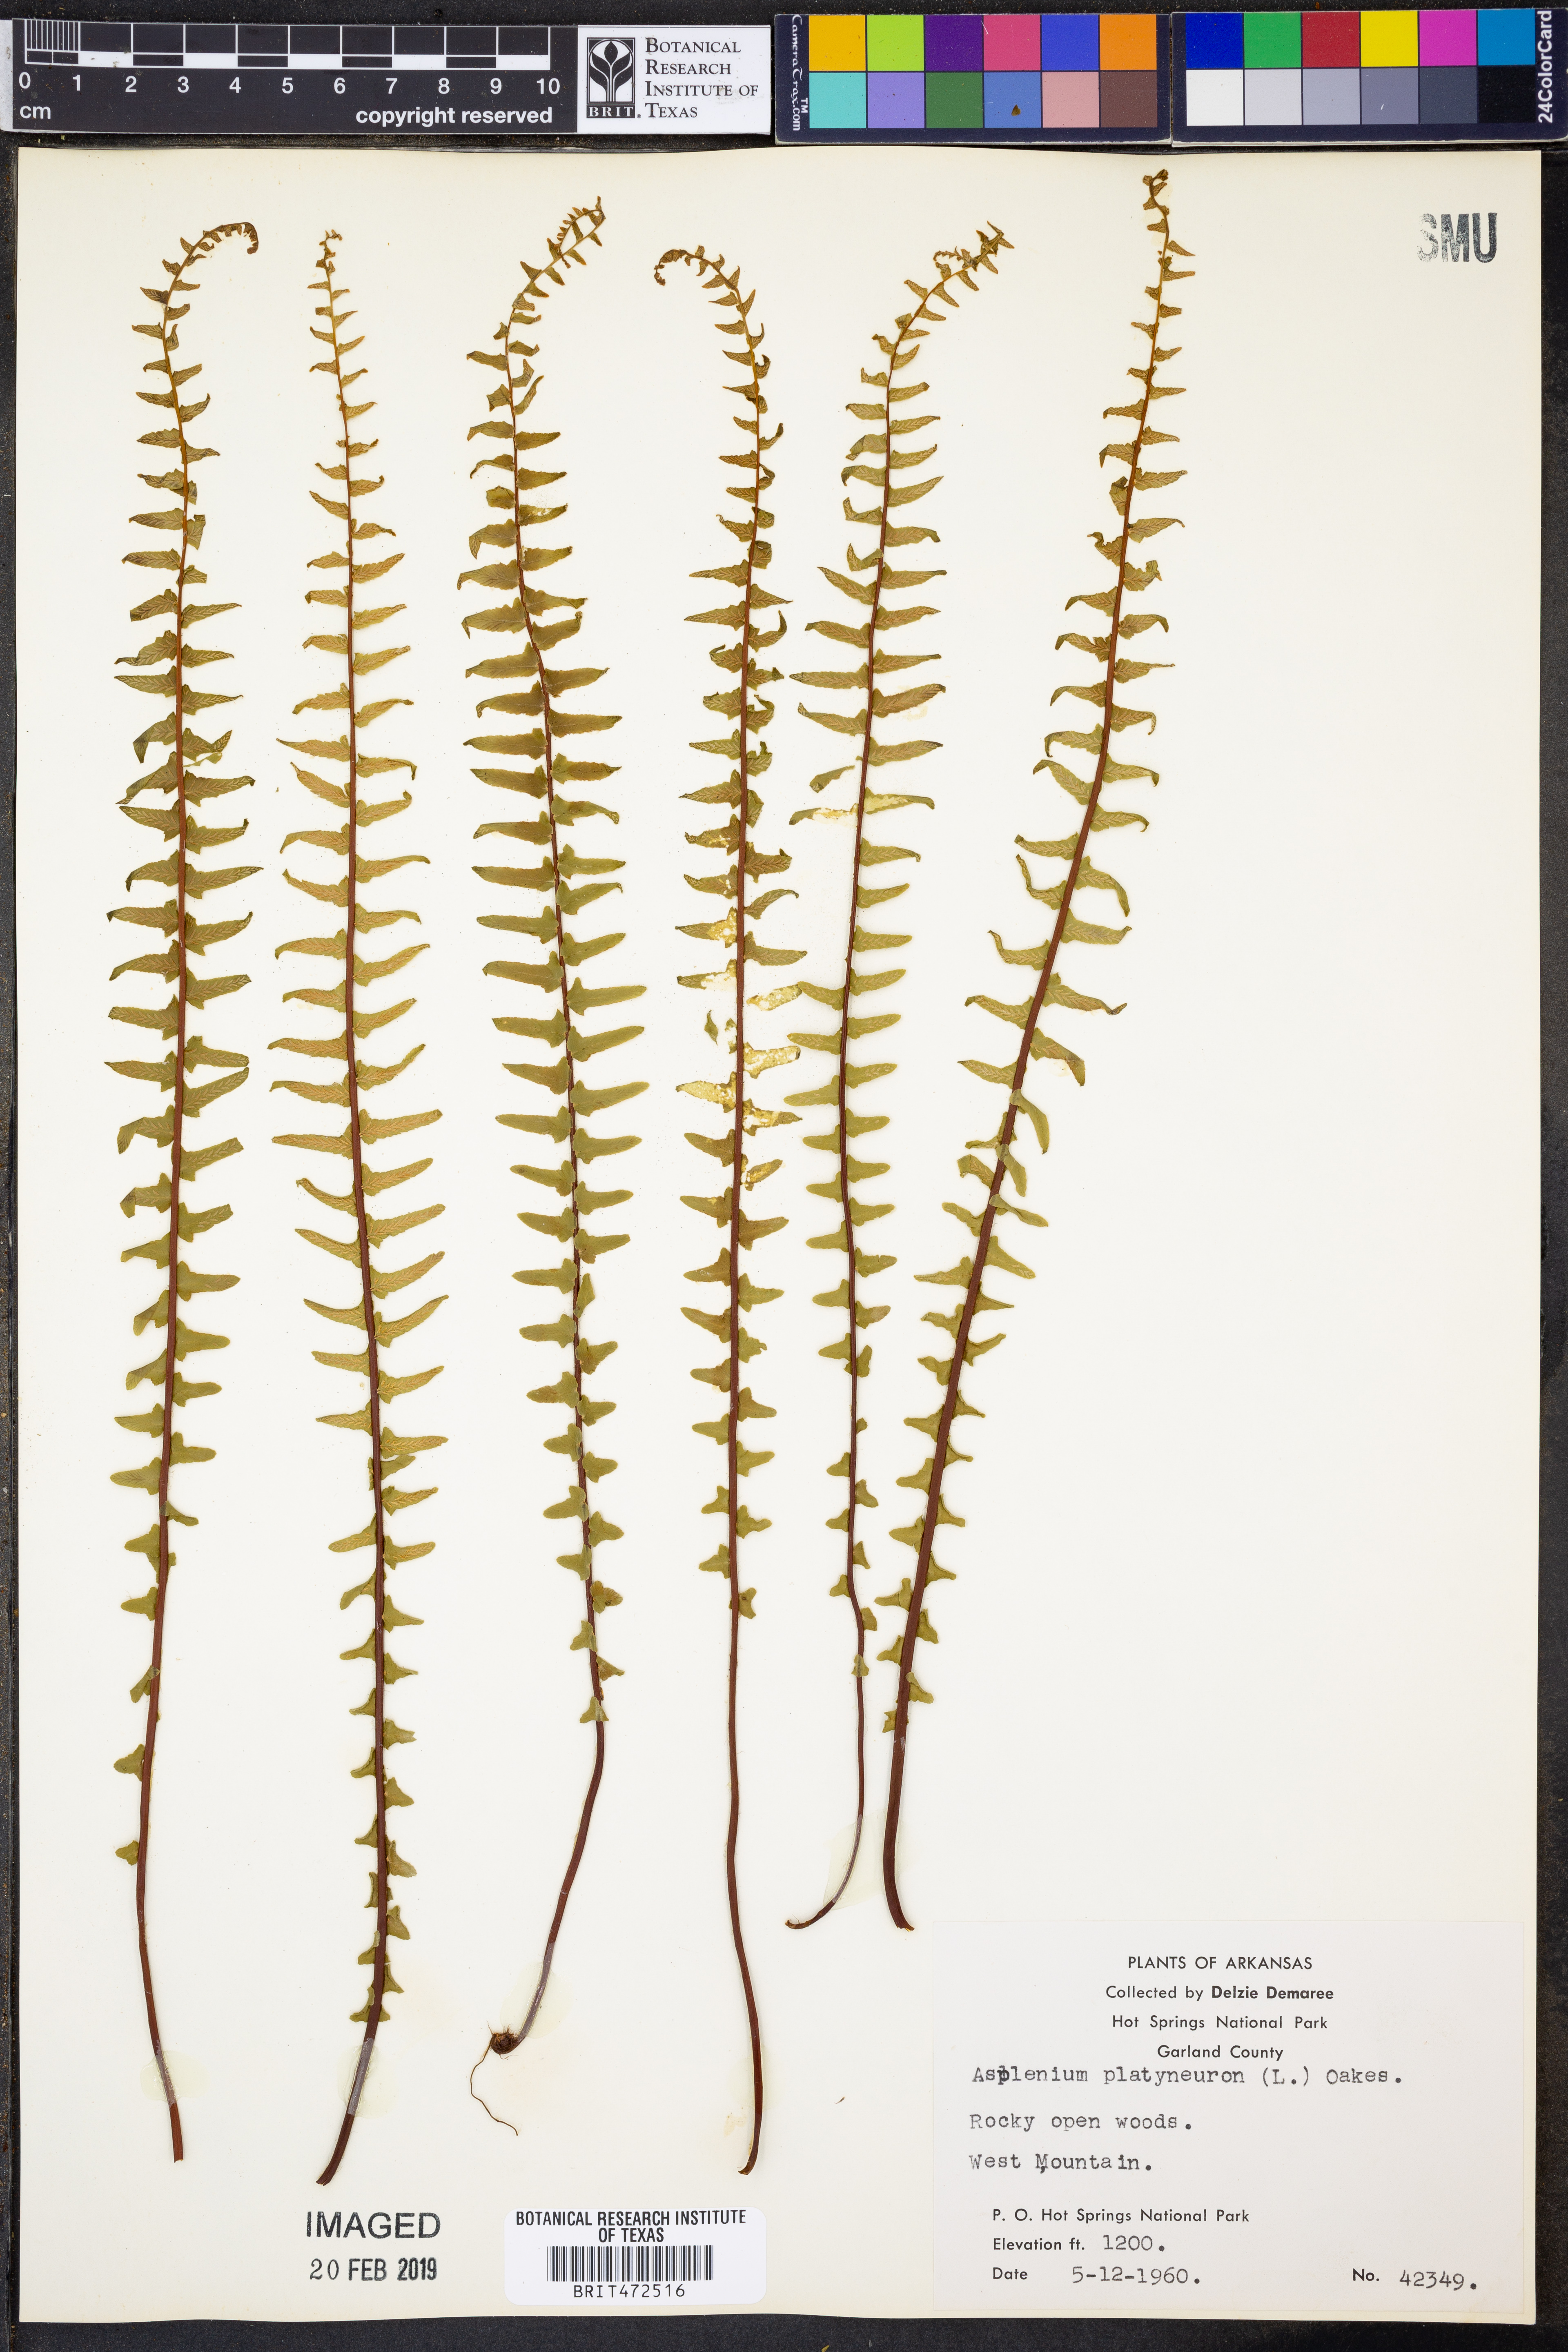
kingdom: Plantae
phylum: Tracheophyta
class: Polypodiopsida
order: Polypodiales
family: Aspleniaceae
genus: Asplenium
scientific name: Asplenium platyneuron
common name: Ebony spleenwort
